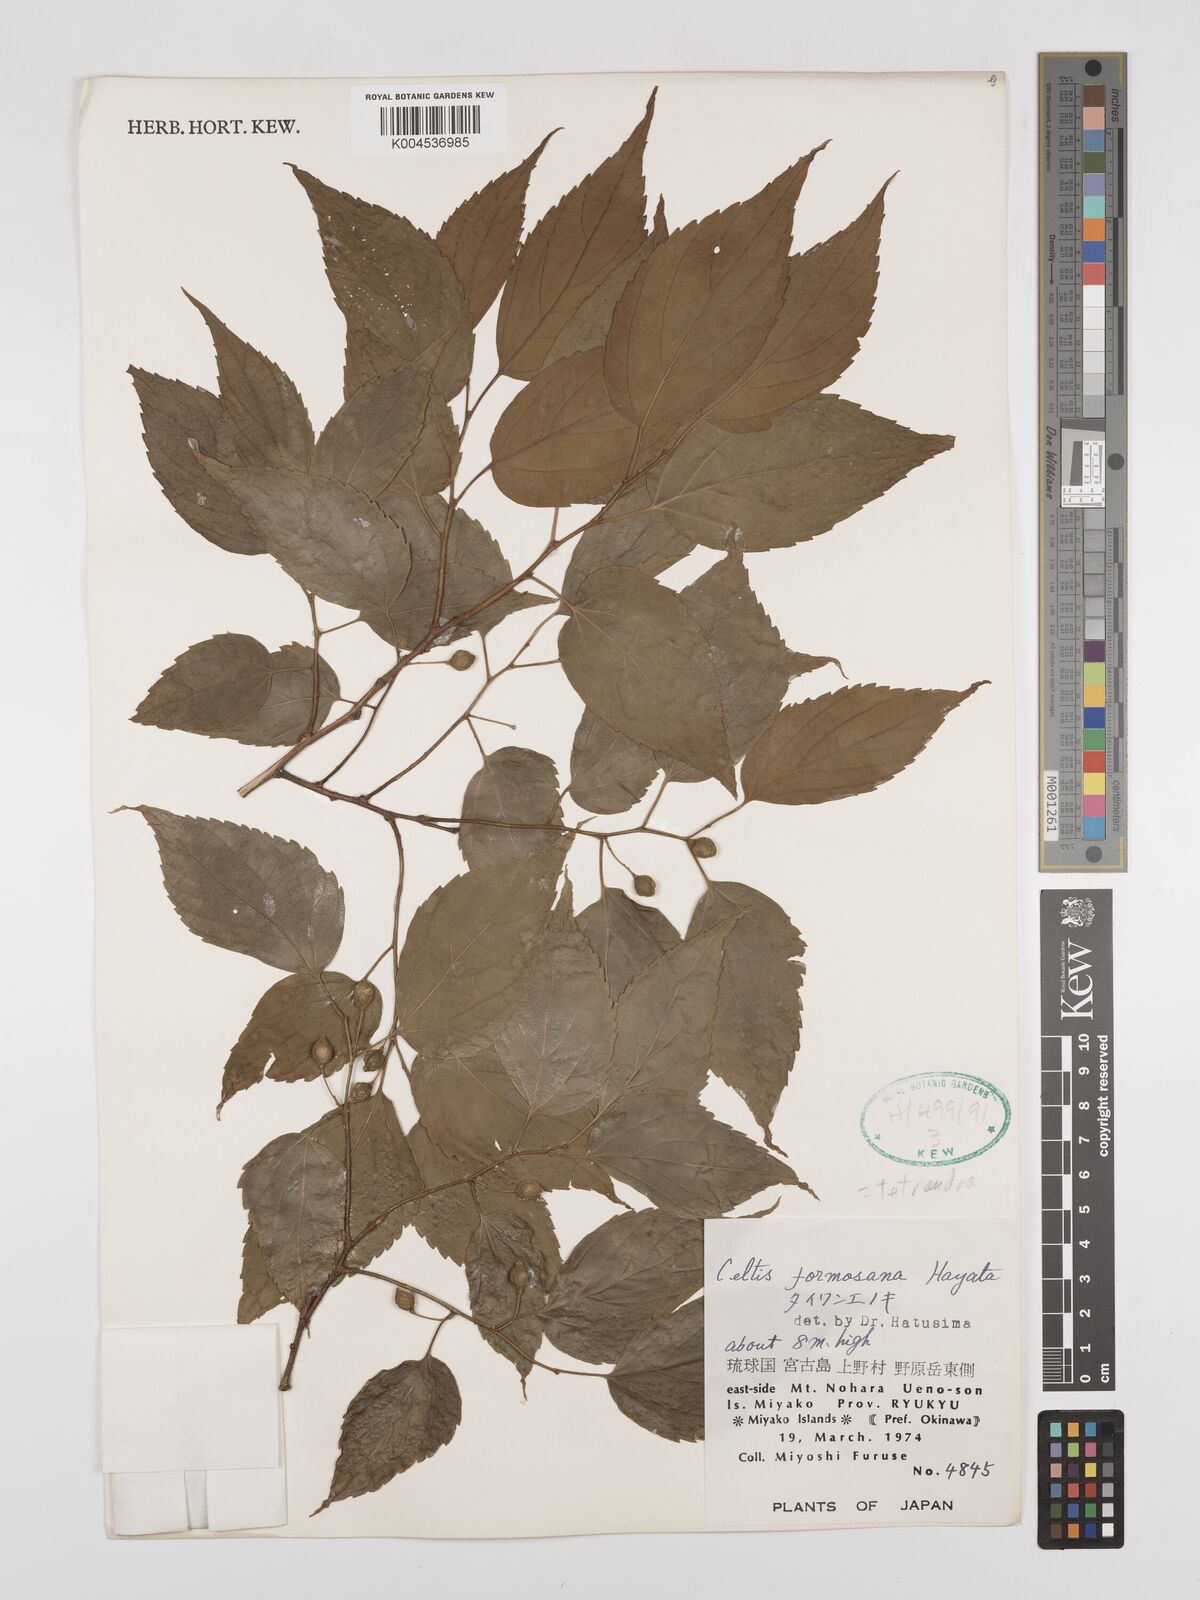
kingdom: Plantae
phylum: Tracheophyta
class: Magnoliopsida
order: Rosales
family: Cannabaceae
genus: Celtis
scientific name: Celtis tetrandra
